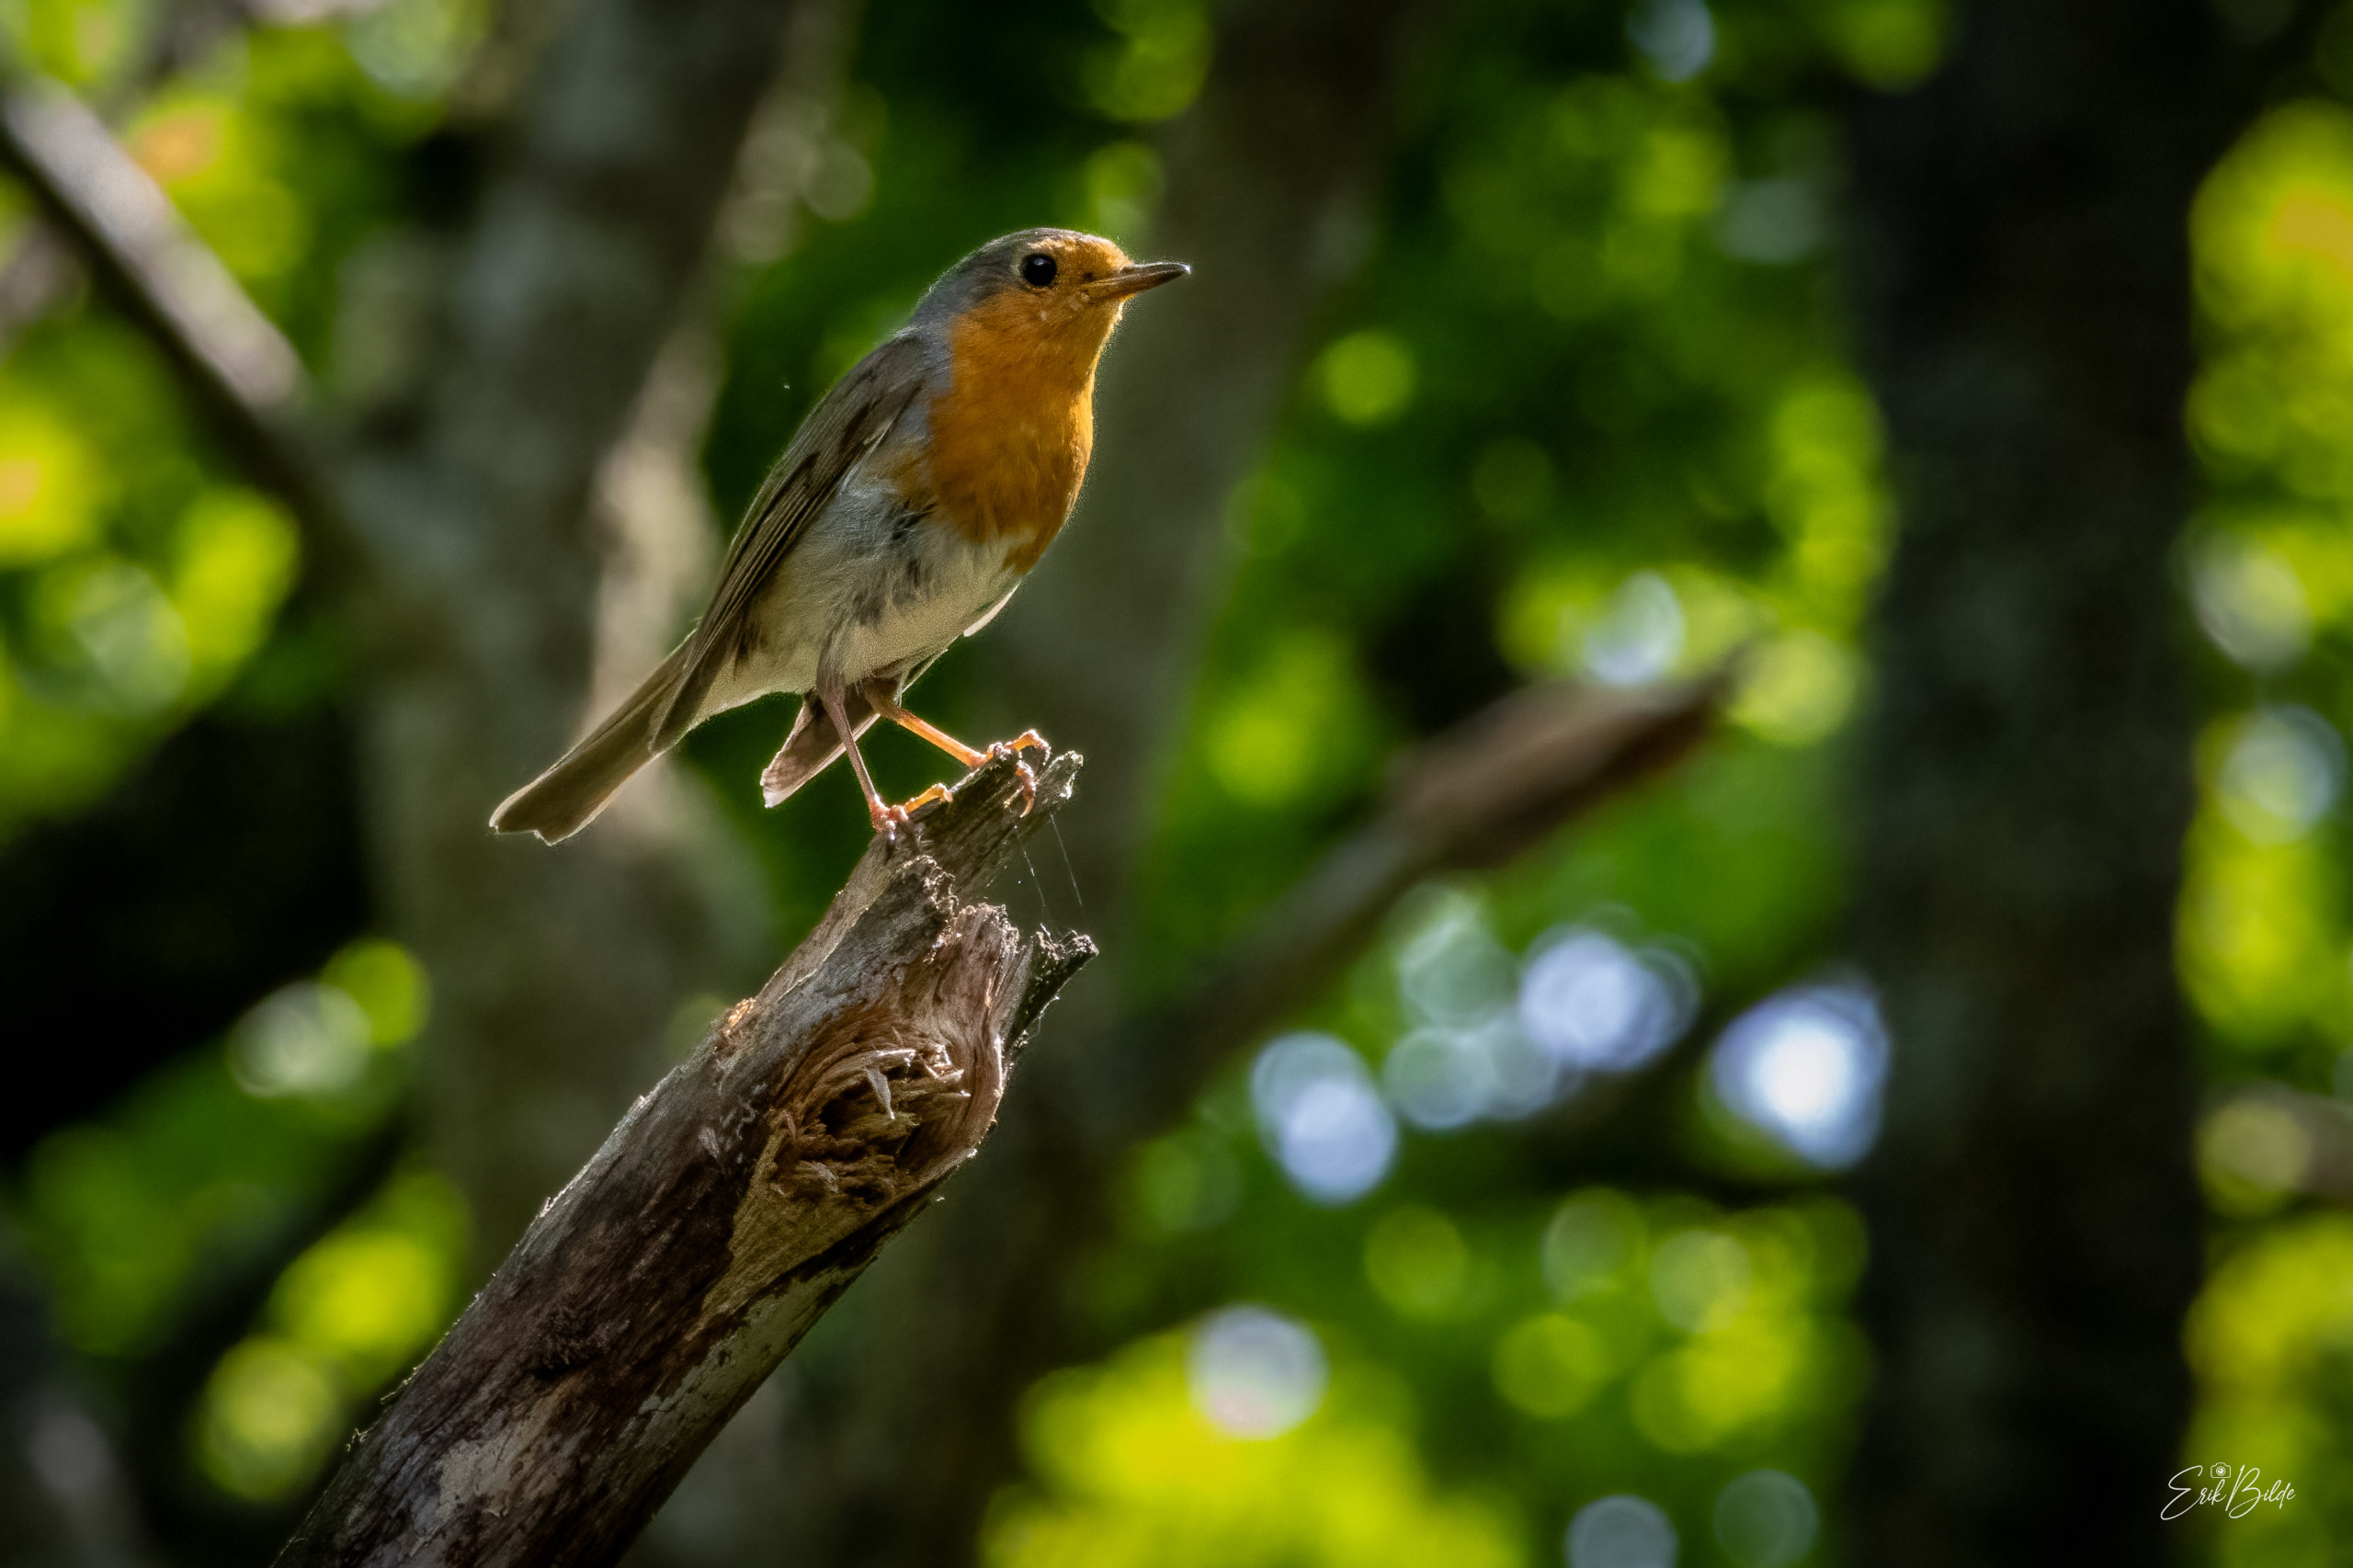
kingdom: Animalia
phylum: Chordata
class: Aves
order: Passeriformes
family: Muscicapidae
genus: Erithacus
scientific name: Erithacus rubecula
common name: Rødhals/rødkælk
